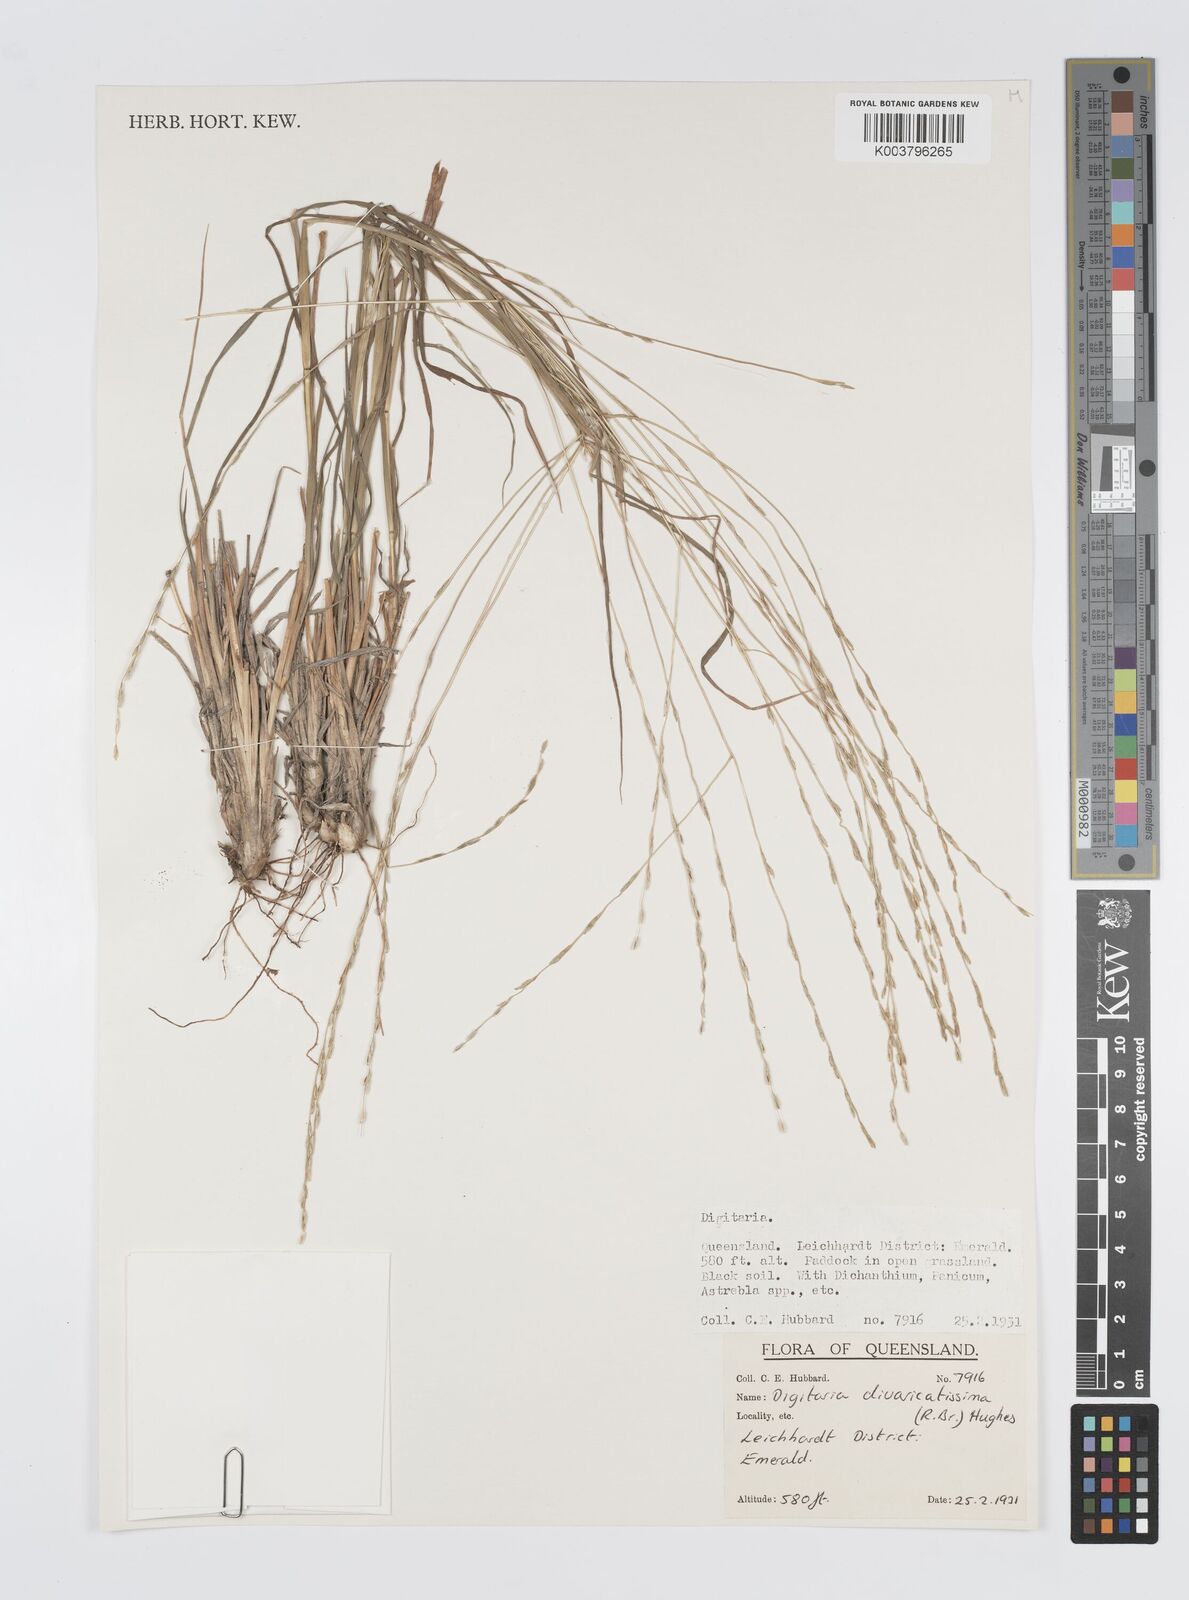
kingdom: Plantae
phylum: Tracheophyta
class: Liliopsida
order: Poales
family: Poaceae
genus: Digitaria
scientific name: Digitaria divaricatissima
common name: Crabgrass
